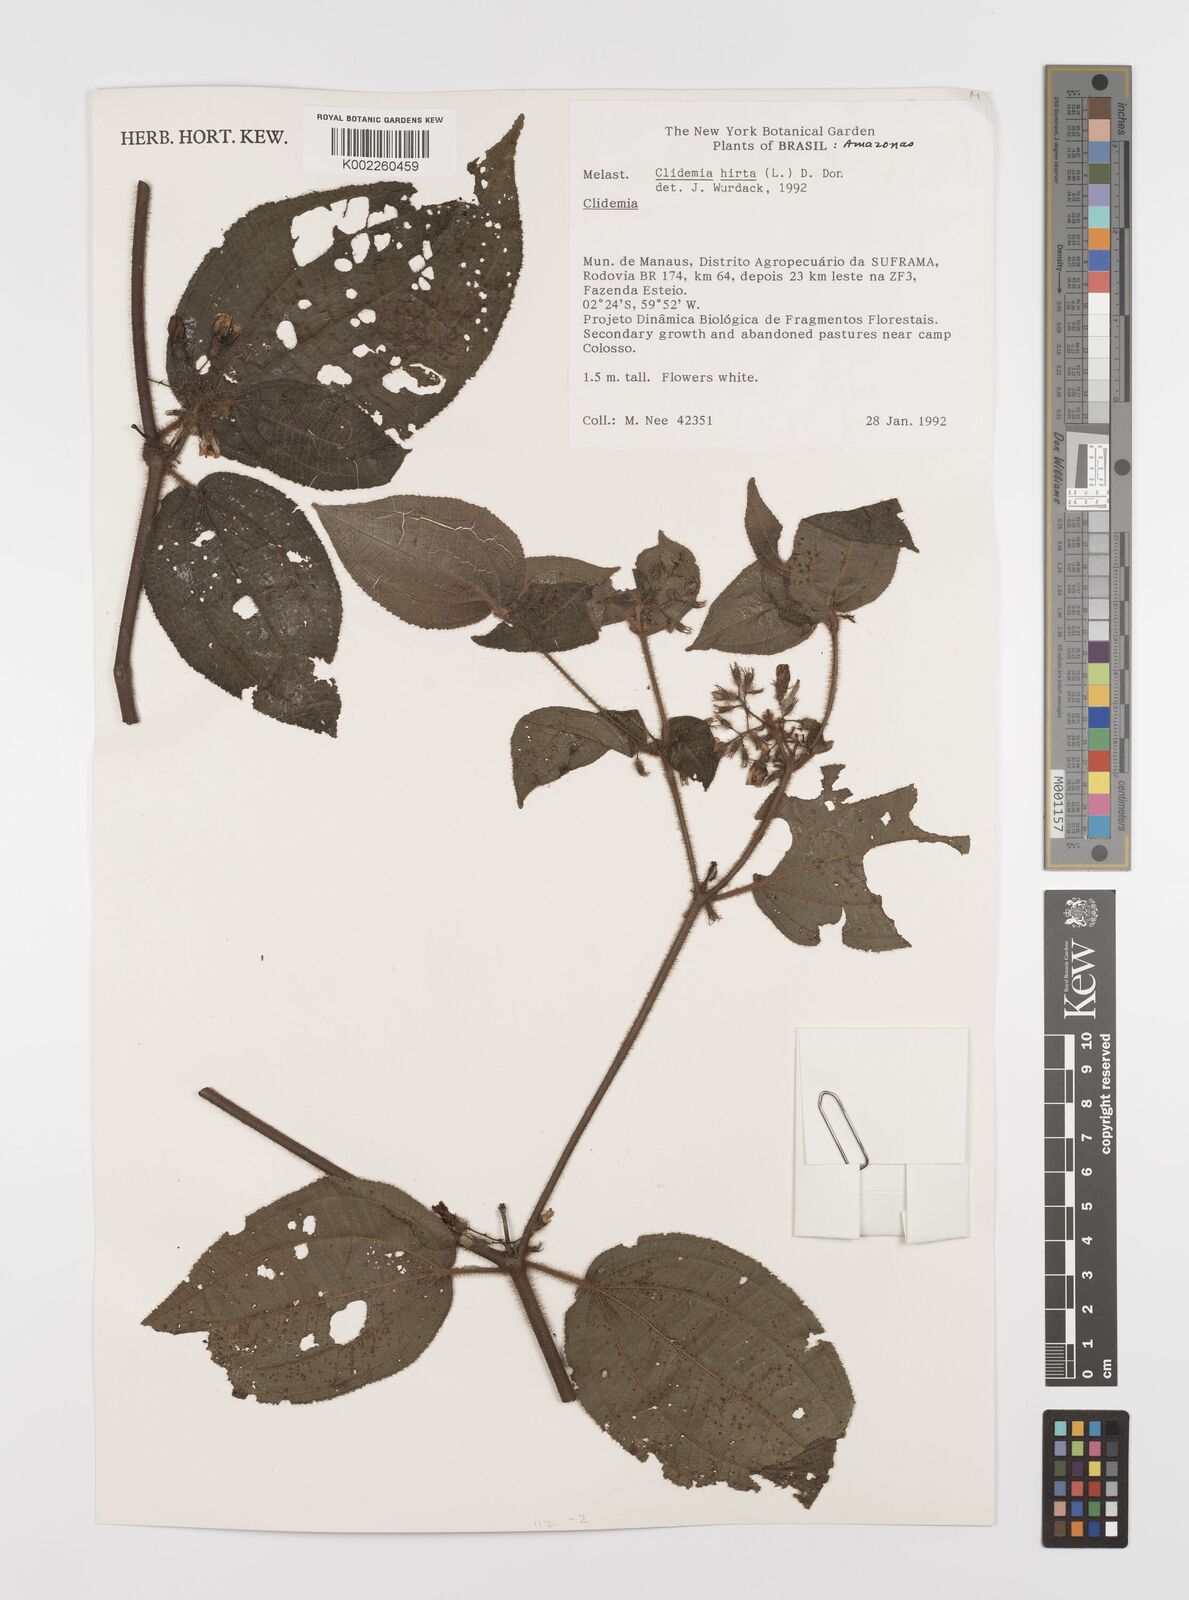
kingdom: Plantae
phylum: Tracheophyta
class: Magnoliopsida
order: Myrtales
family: Melastomataceae
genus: Miconia
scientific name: Miconia crenata
